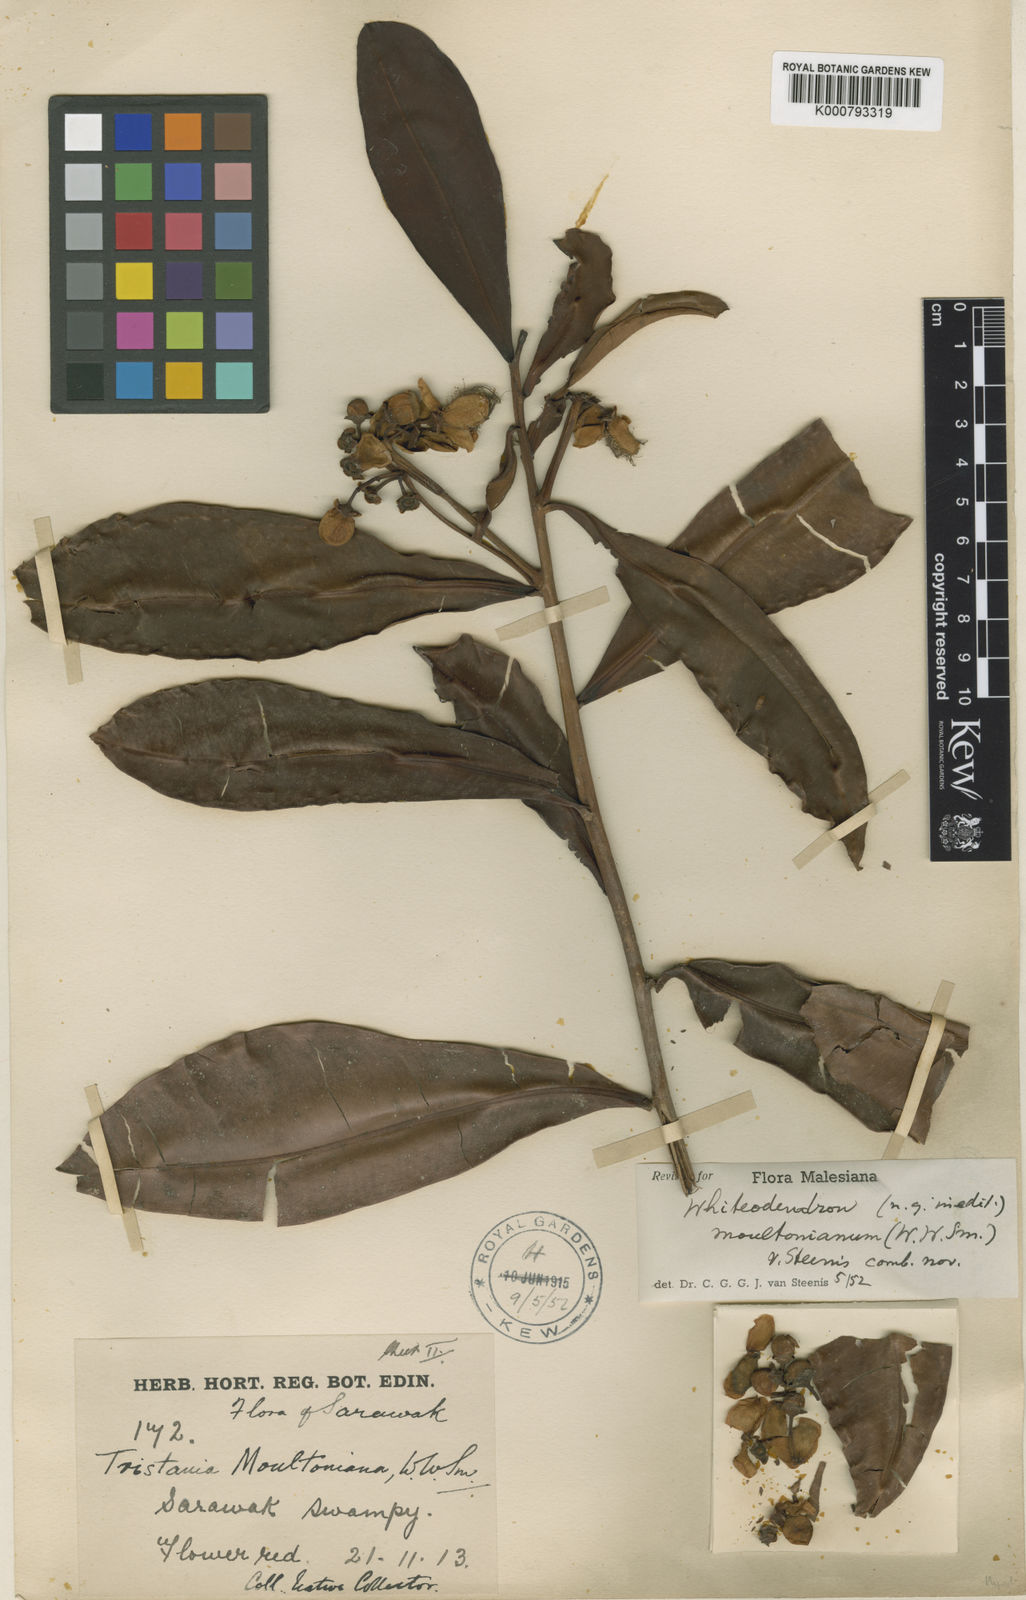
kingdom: Plantae
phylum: Tracheophyta
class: Magnoliopsida
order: Myrtales
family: Myrtaceae
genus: Whiteodendron
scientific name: Whiteodendron moultonianum
